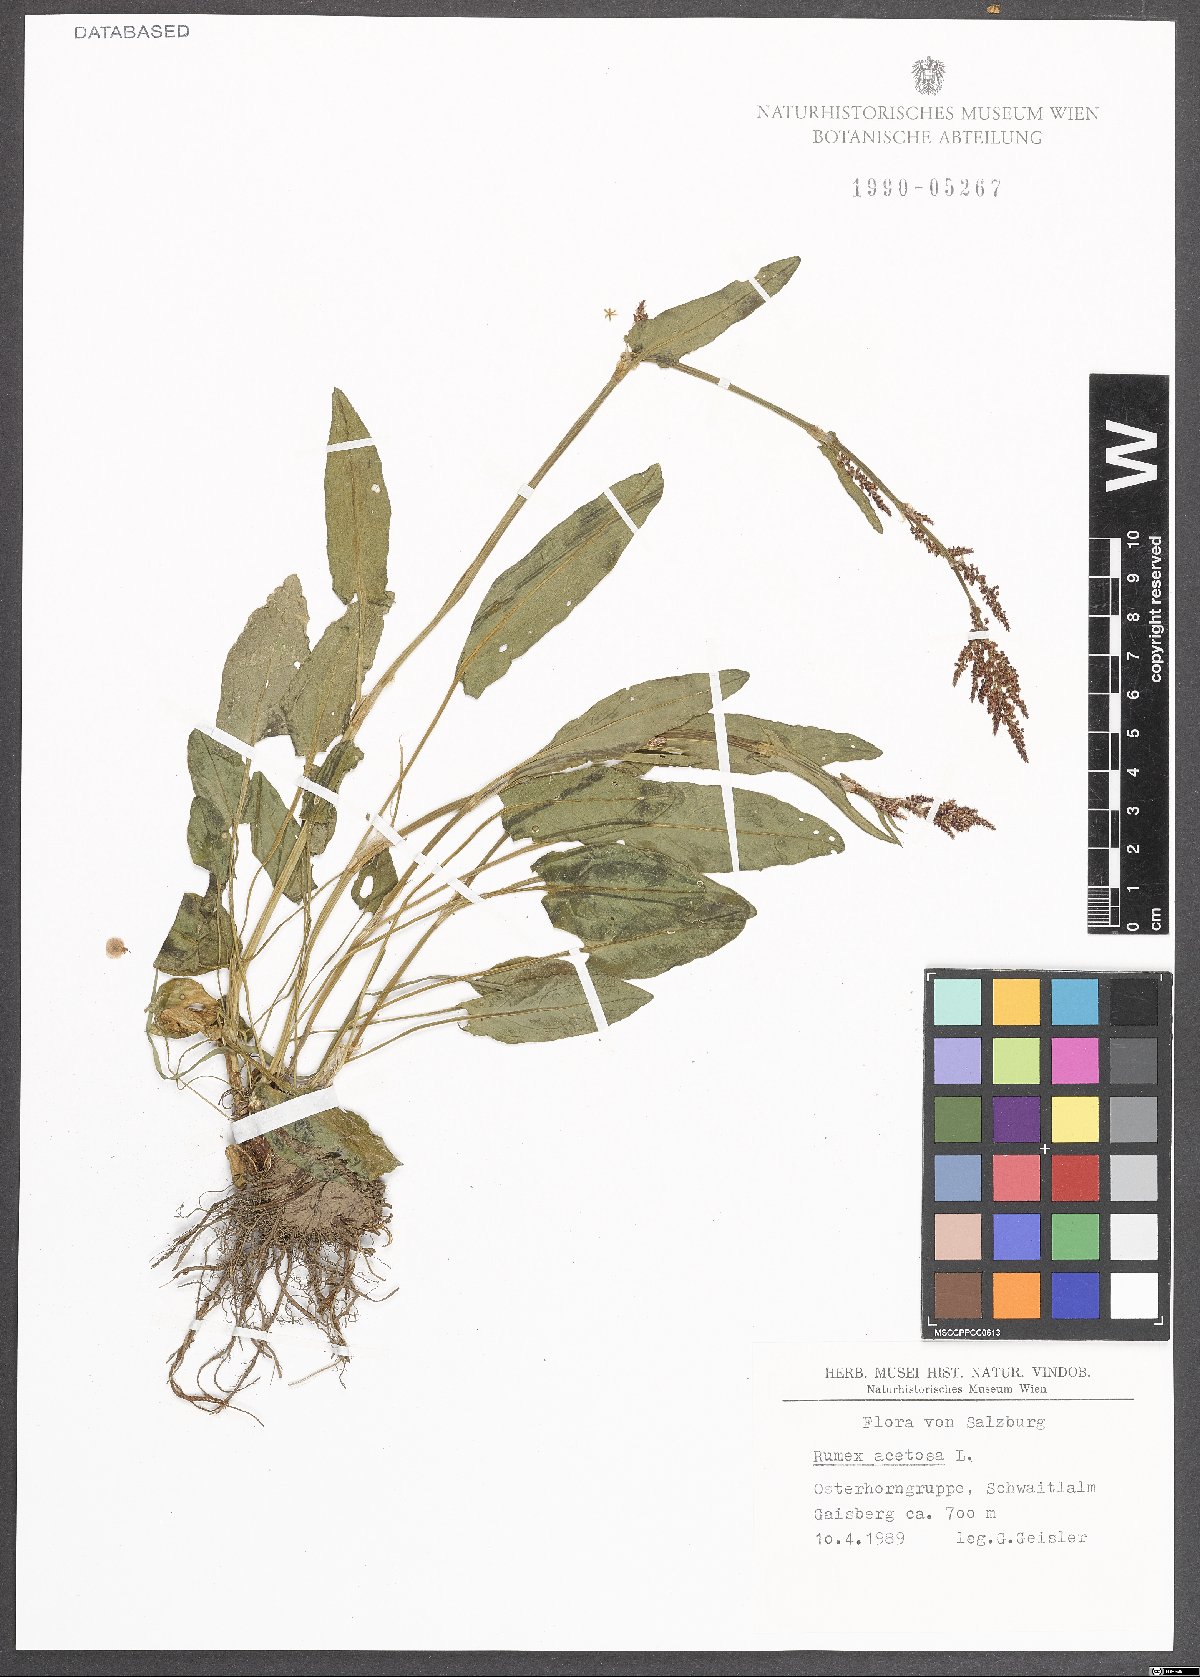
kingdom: Plantae
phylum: Tracheophyta
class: Magnoliopsida
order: Caryophyllales
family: Polygonaceae
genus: Rumex
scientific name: Rumex acetosa
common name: Garden sorrel
